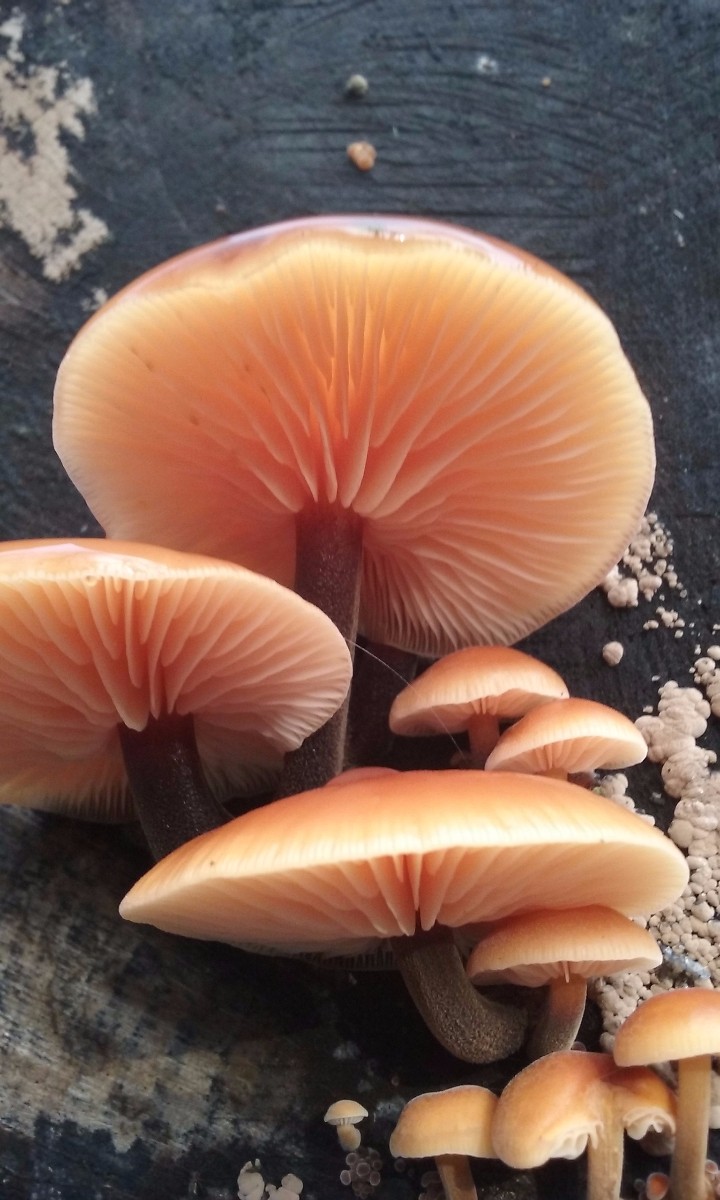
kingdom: Fungi
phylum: Basidiomycota
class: Agaricomycetes
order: Agaricales
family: Physalacriaceae
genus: Flammulina
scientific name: Flammulina velutipes
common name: gul fløjlsfod
